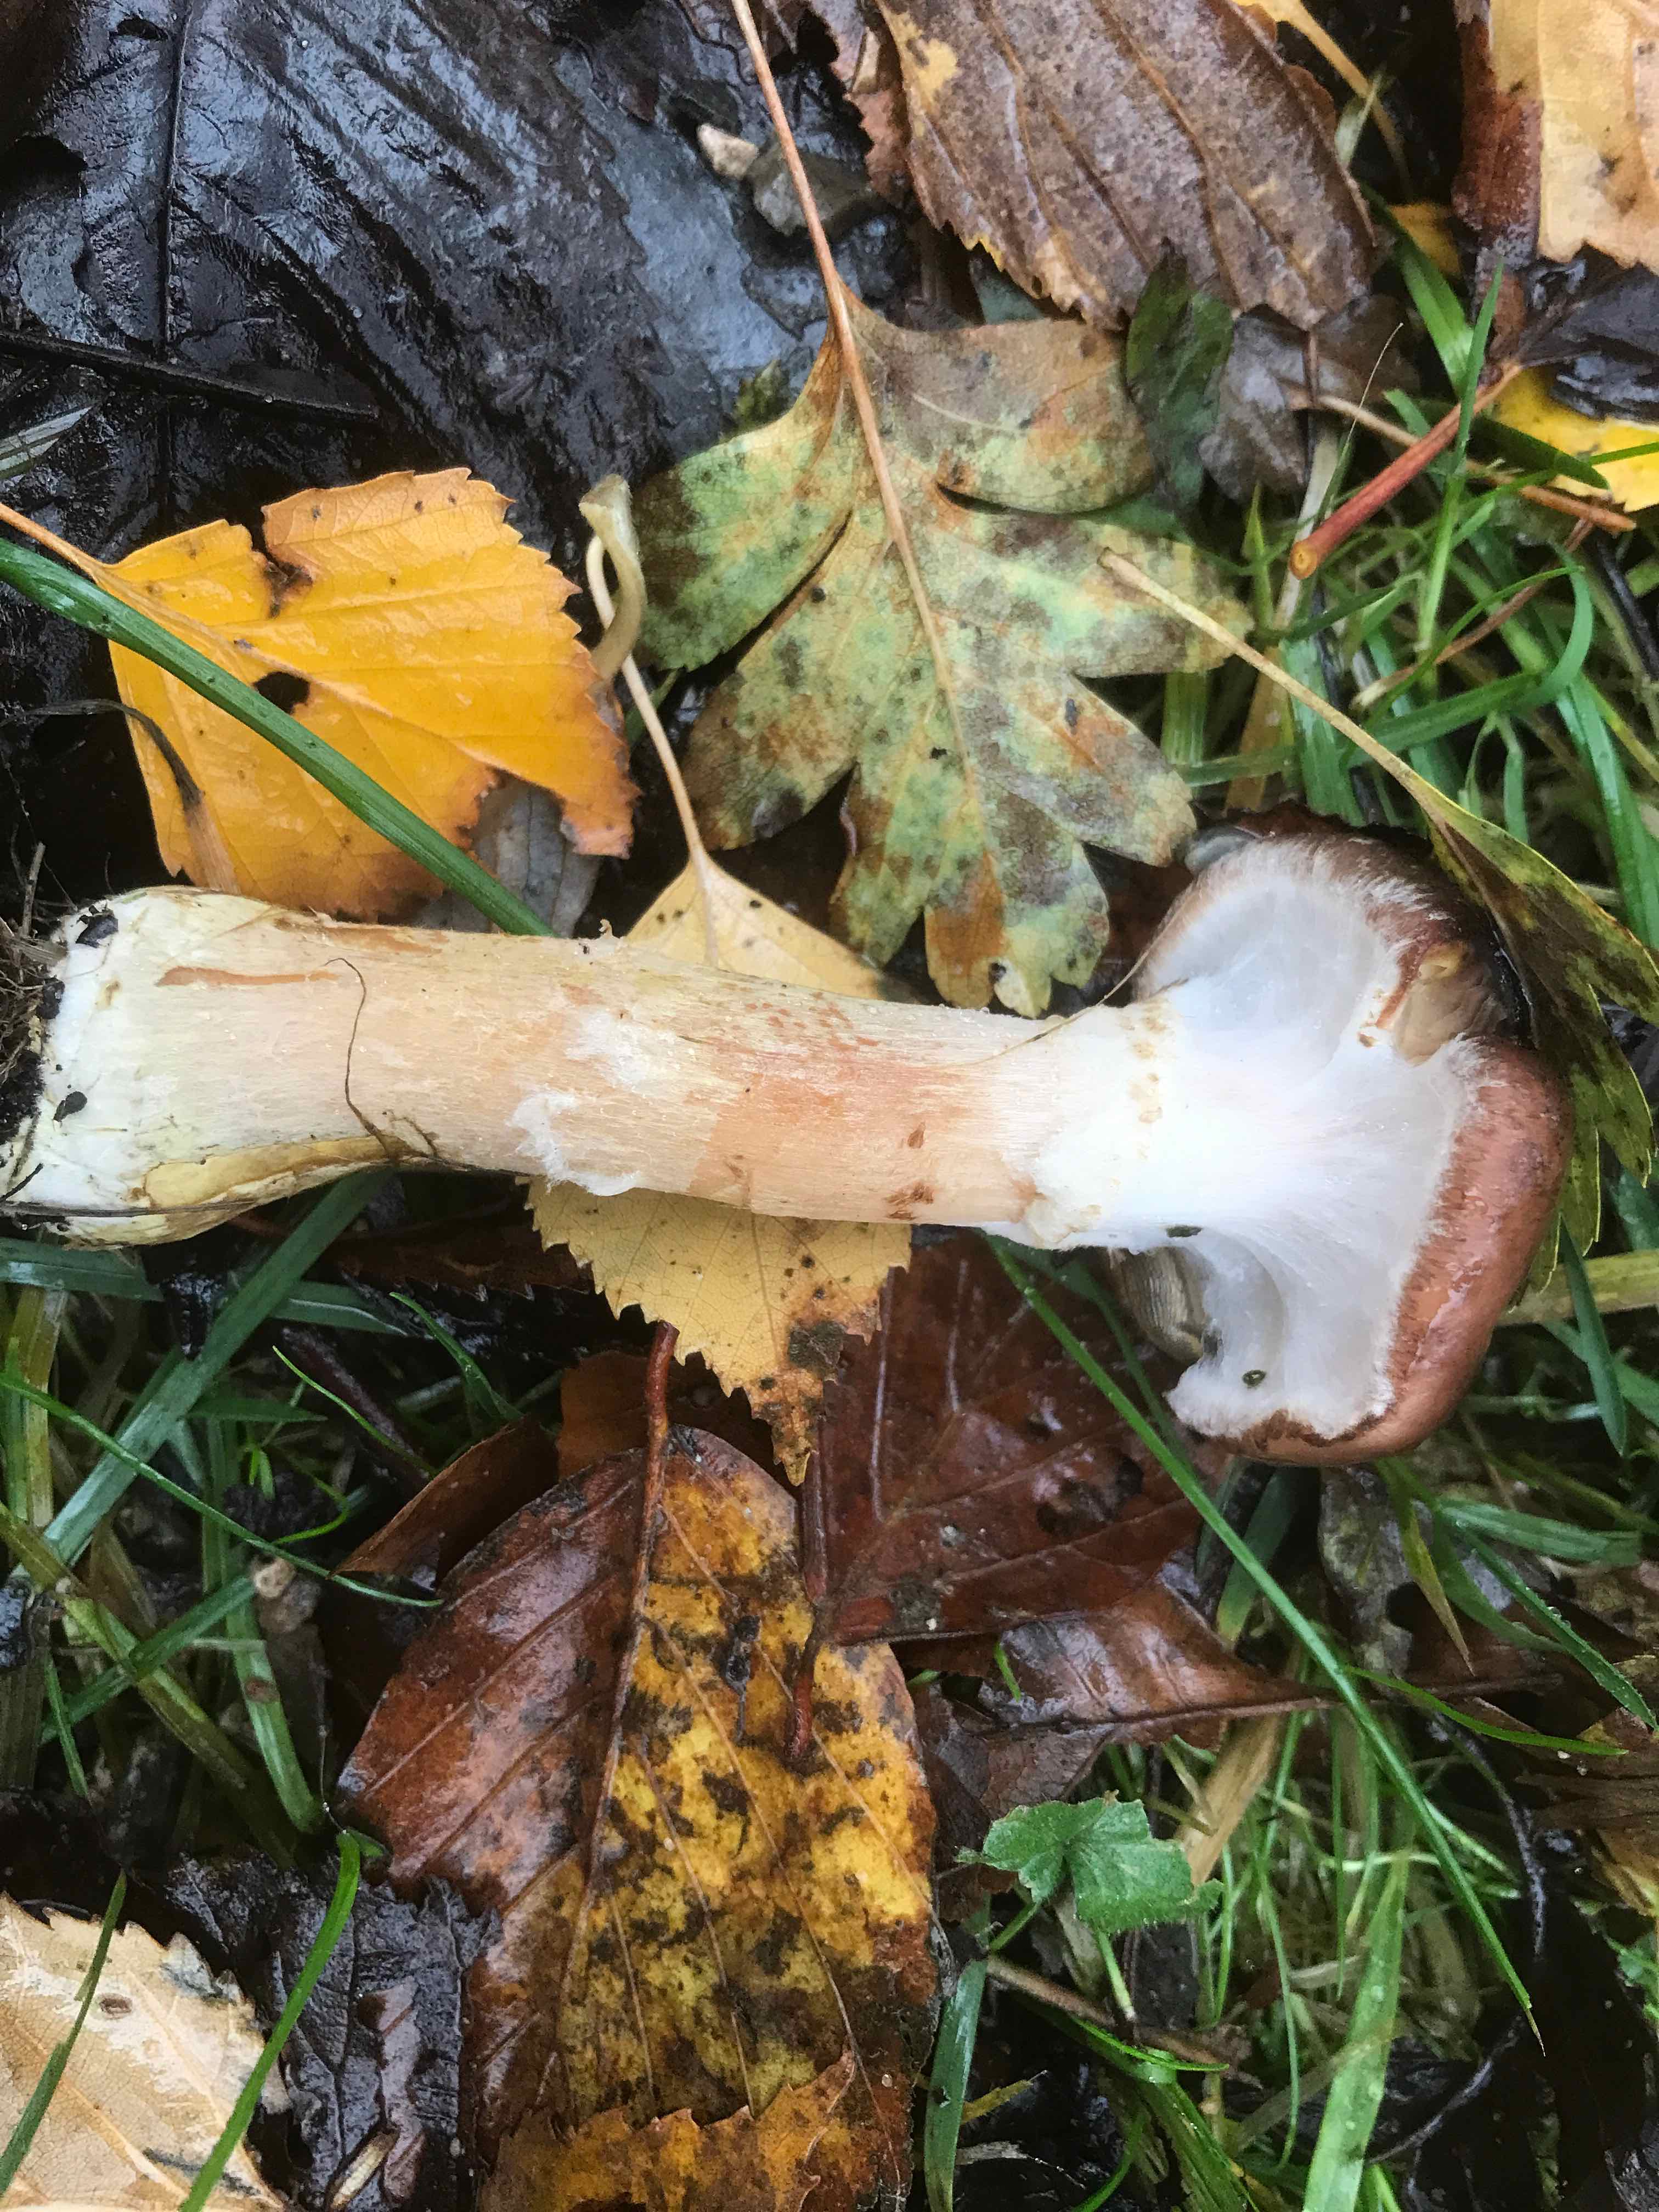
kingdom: Fungi
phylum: Basidiomycota
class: Agaricomycetes
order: Agaricales
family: Physalacriaceae
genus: Armillaria
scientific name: Armillaria lutea
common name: køllestokket honningsvamp
